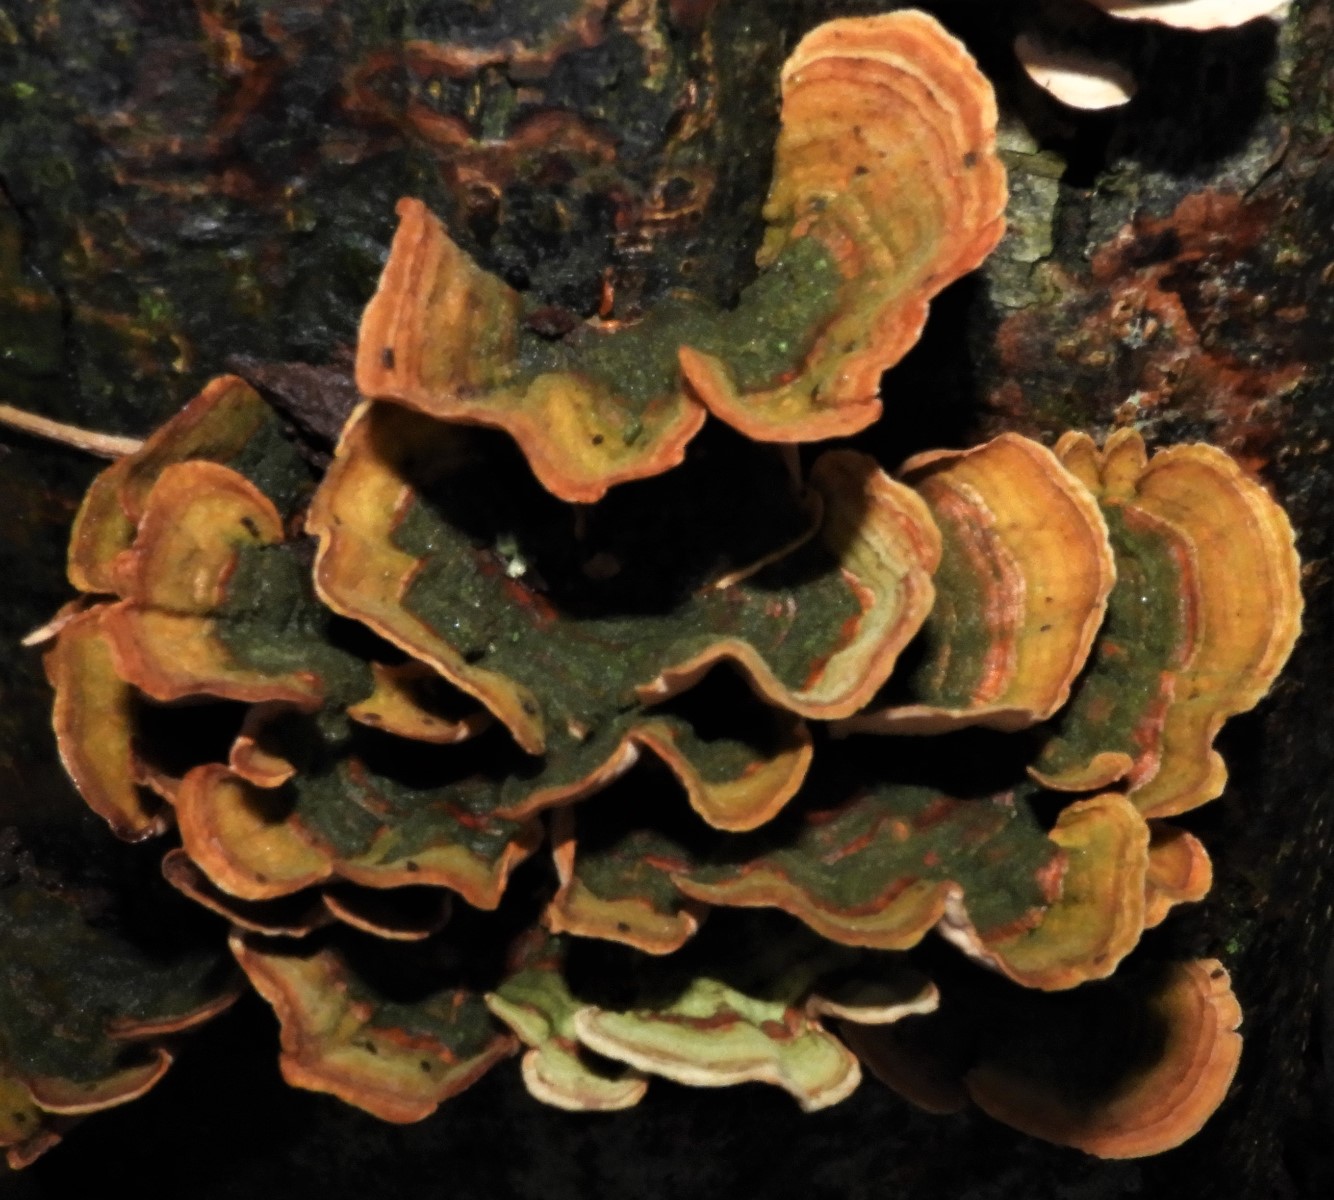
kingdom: Fungi
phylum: Basidiomycota
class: Agaricomycetes
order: Russulales
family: Stereaceae
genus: Stereum
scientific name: Stereum subtomentosum
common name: smuk lædersvamp
